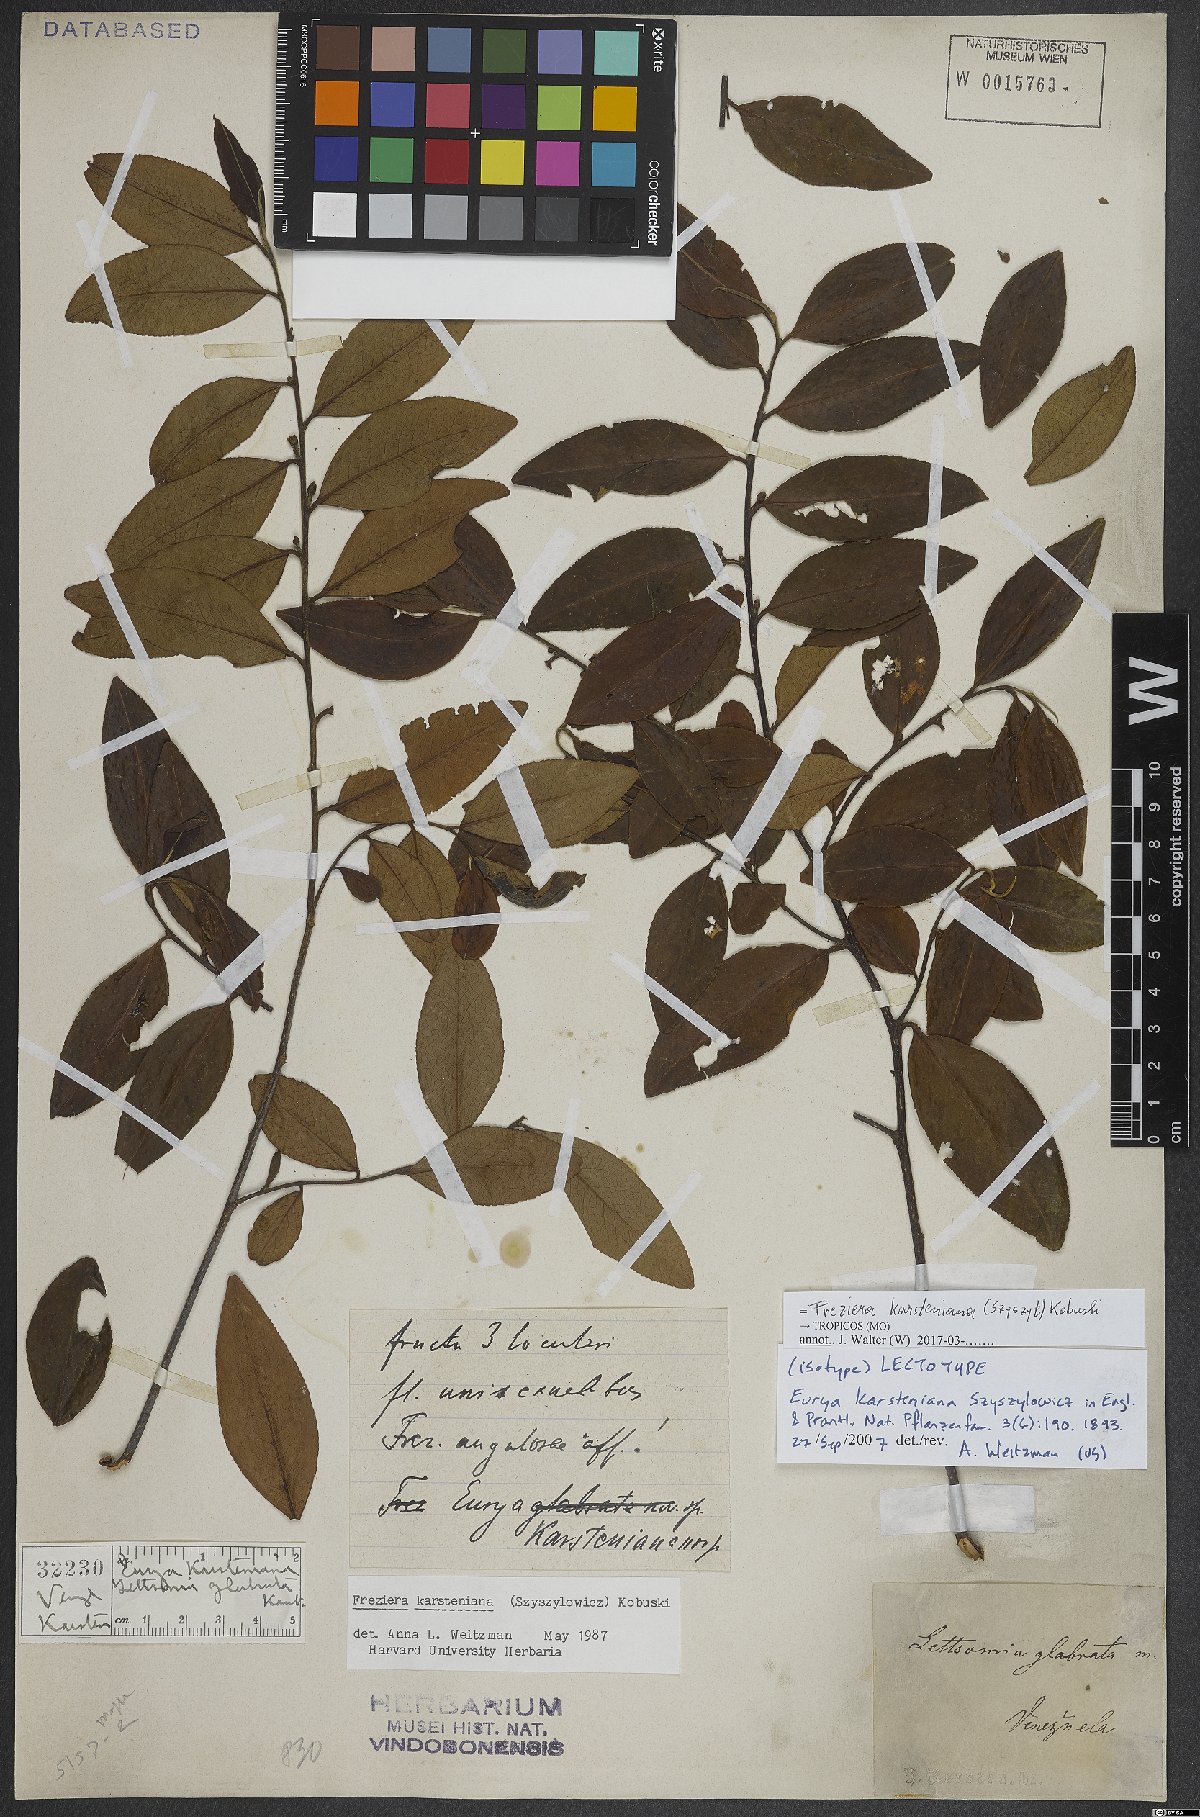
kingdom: Plantae
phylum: Tracheophyta
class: Magnoliopsida
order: Ericales
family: Pentaphylacaceae
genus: Freziera
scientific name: Freziera karsteniana
